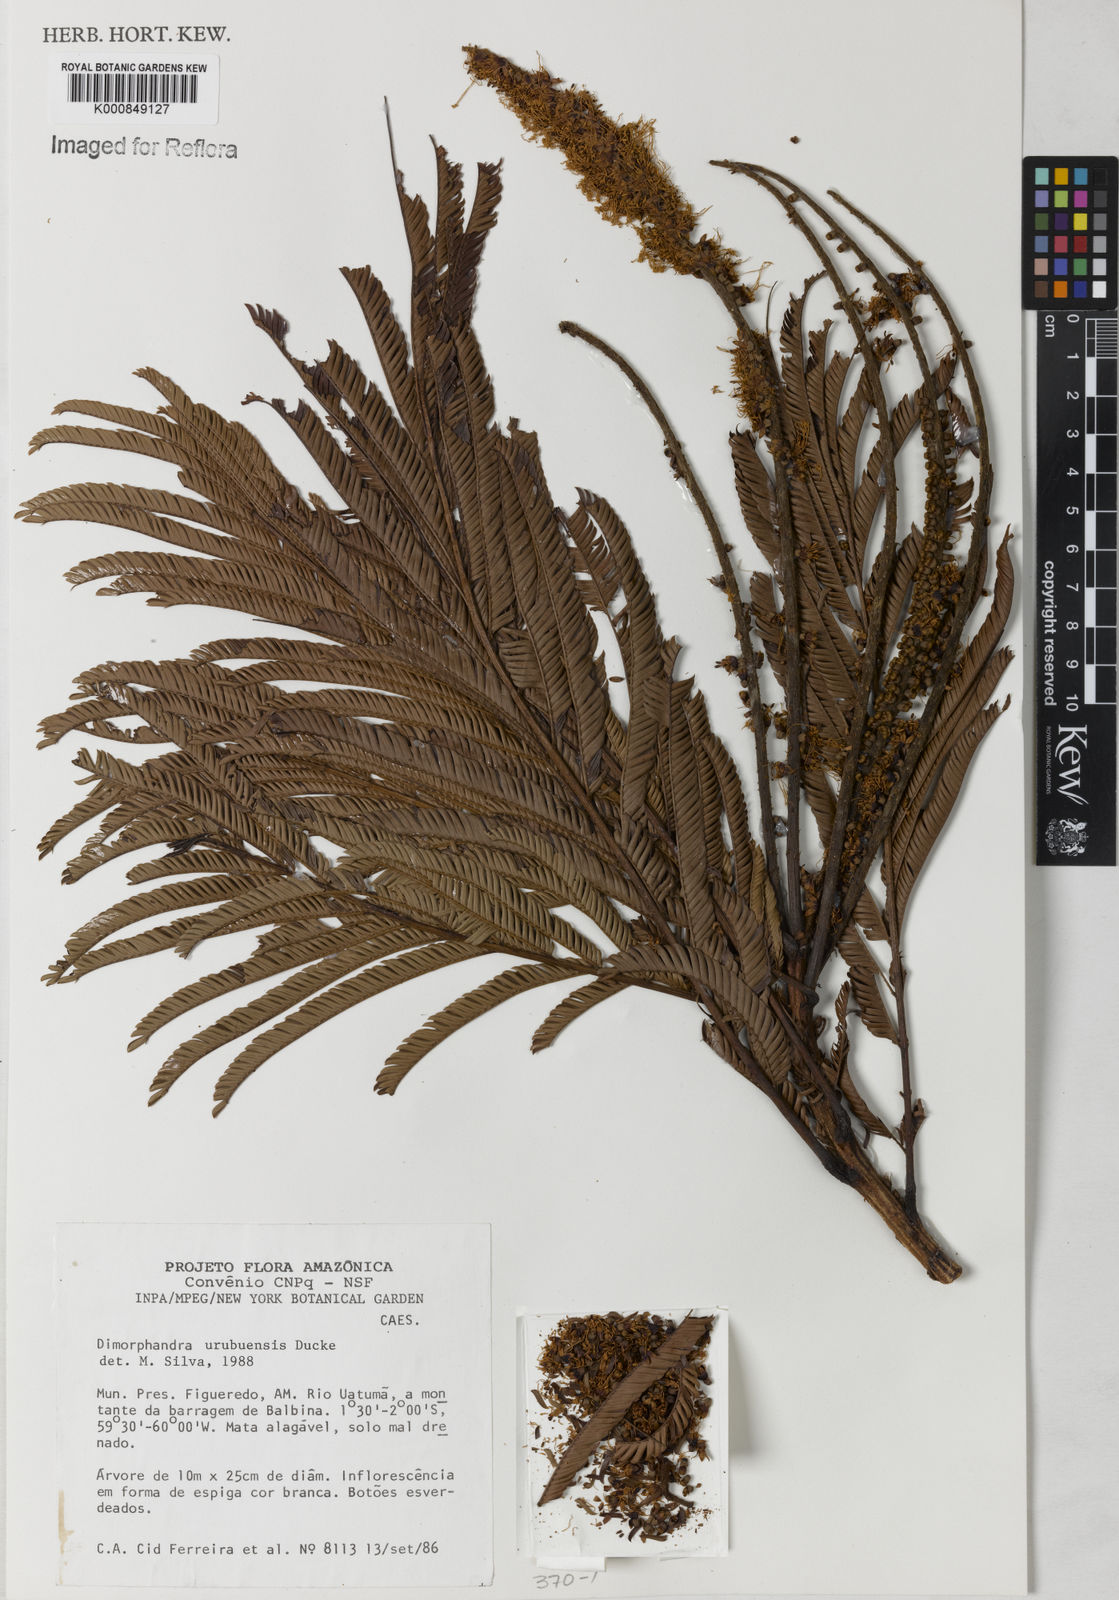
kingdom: Plantae
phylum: Tracheophyta
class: Magnoliopsida
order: Fabales
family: Fabaceae
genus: Pentaclethra
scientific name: Pentaclethra macroloba
